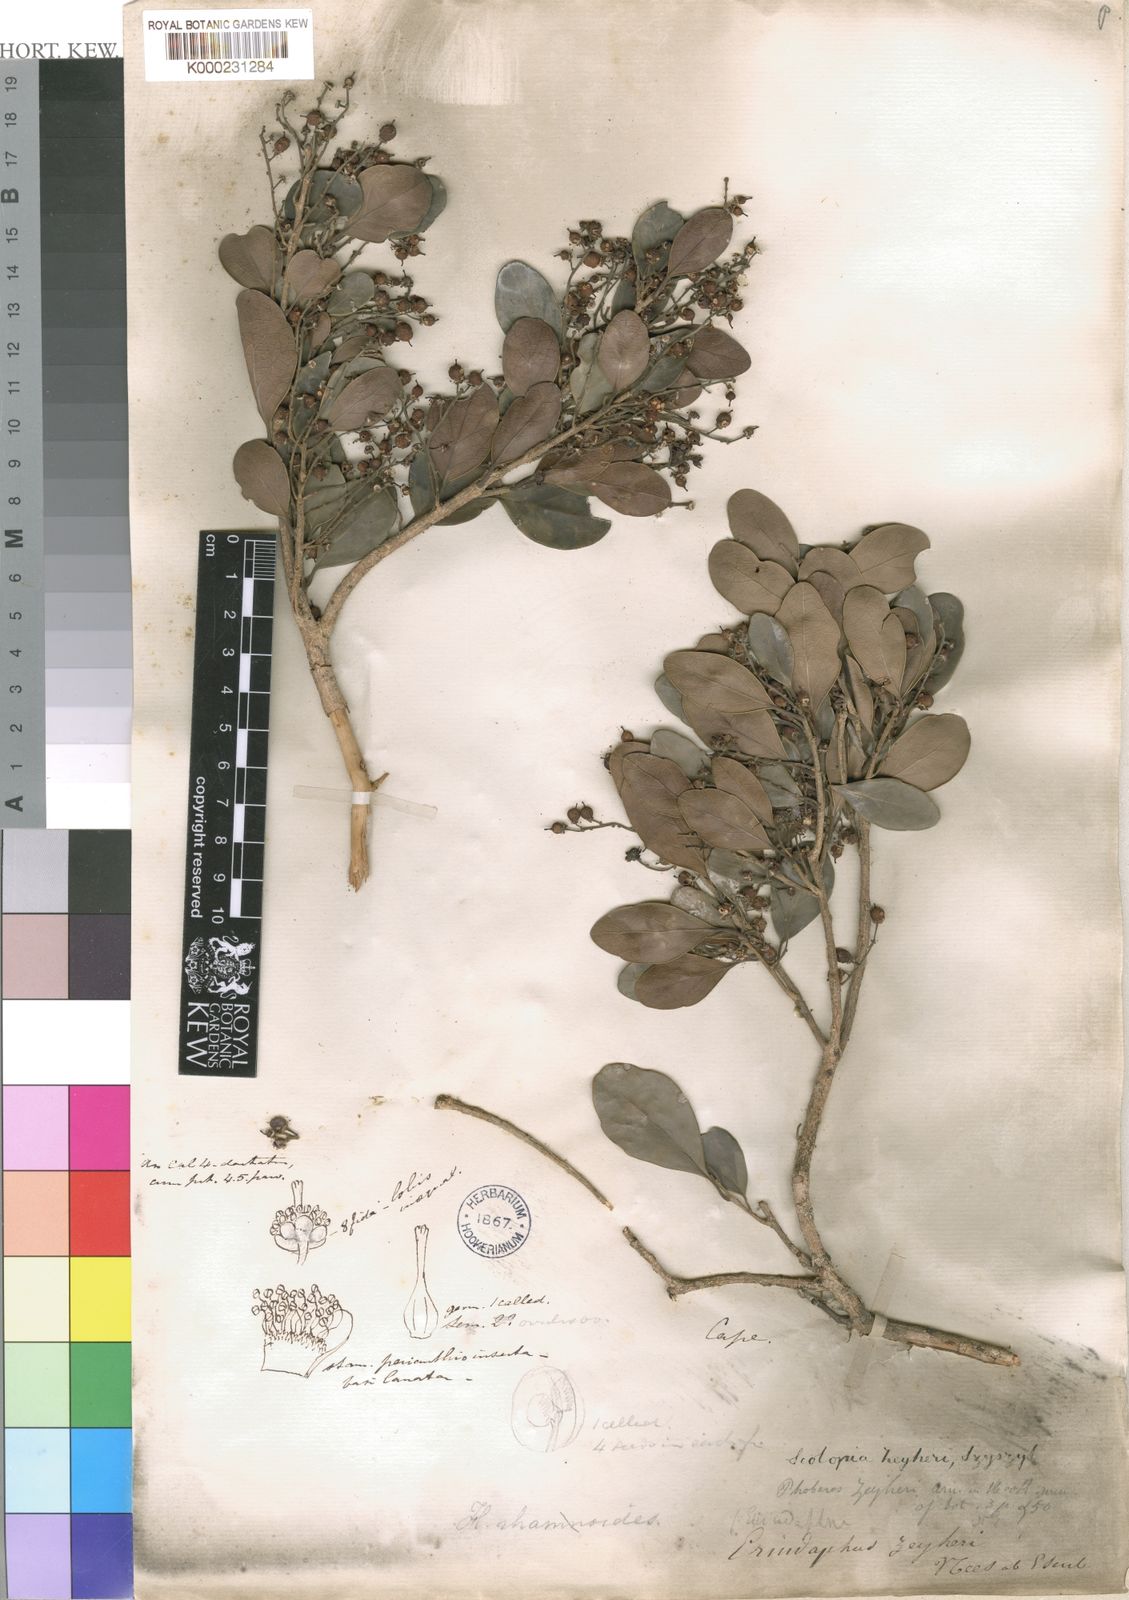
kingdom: Plantae
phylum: Tracheophyta
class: Magnoliopsida
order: Malpighiales
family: Salicaceae
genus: Scolopia
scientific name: Scolopia
